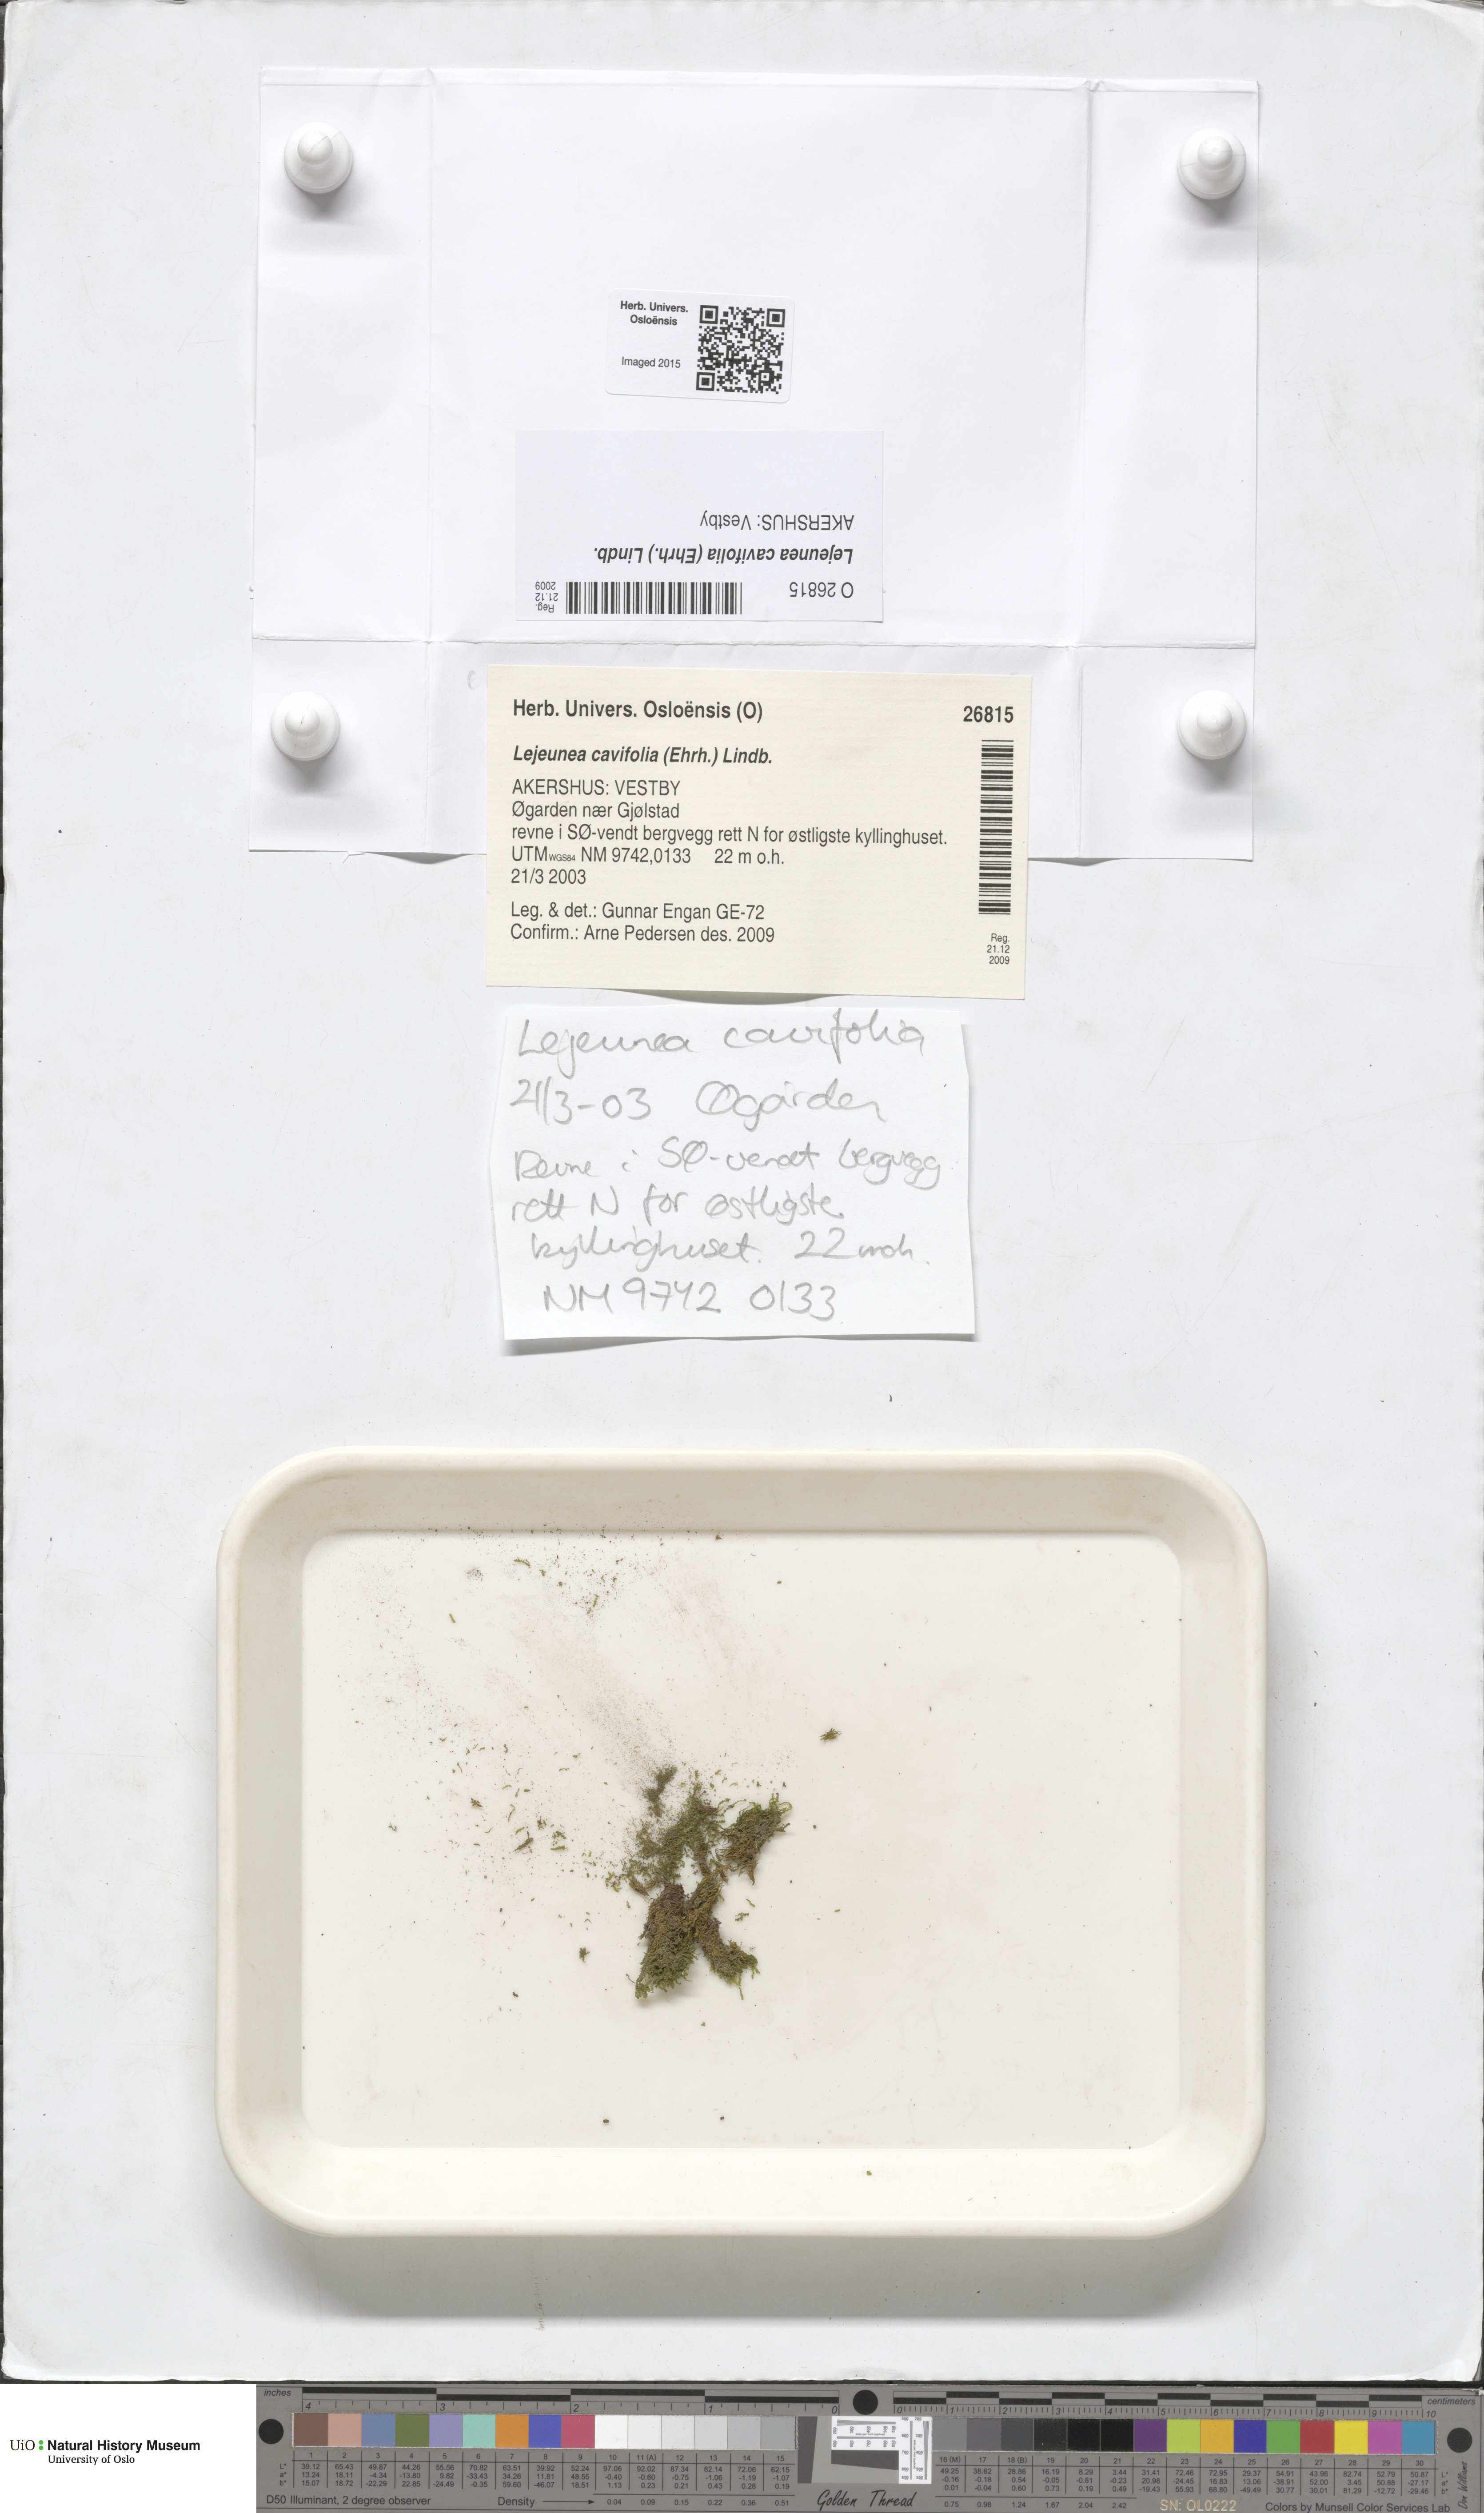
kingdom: Plantae
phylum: Marchantiophyta
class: Jungermanniopsida
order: Porellales
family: Lejeuneaceae
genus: Lejeunea
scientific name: Lejeunea cavifolia
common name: Least pouncewort
